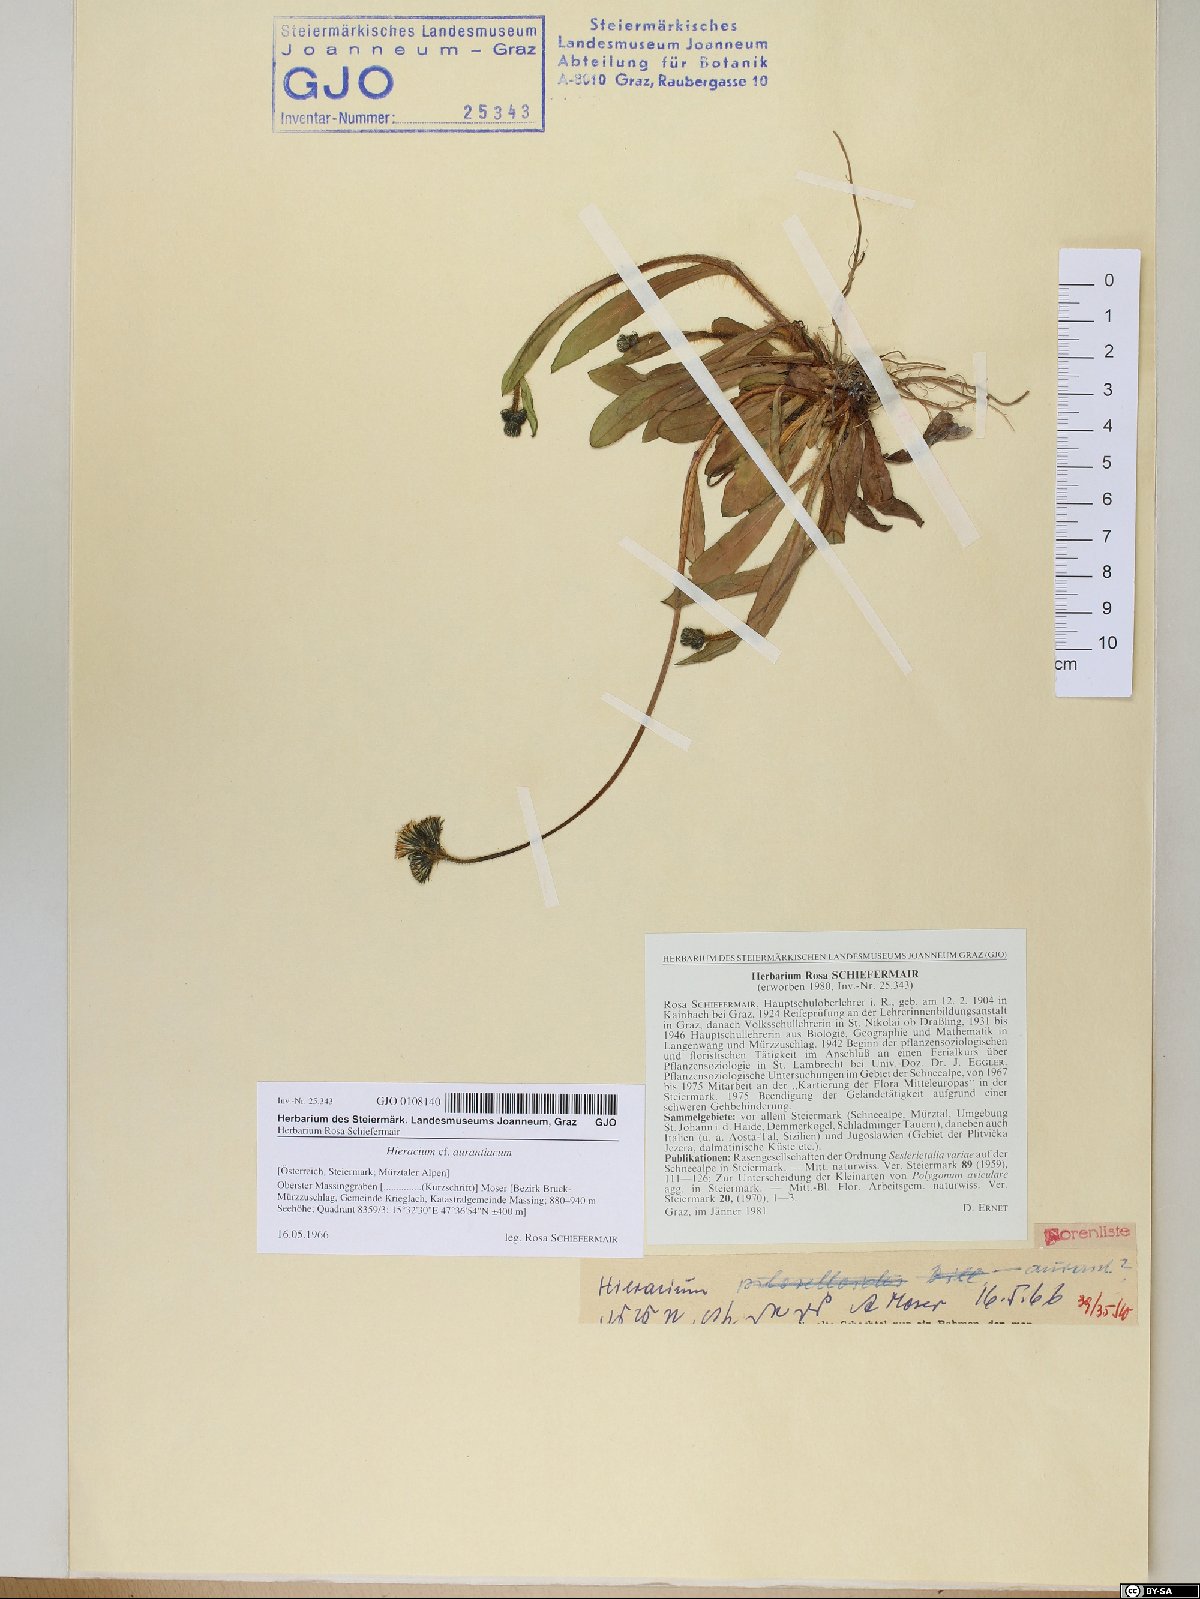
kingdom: Plantae
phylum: Tracheophyta
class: Magnoliopsida
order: Asterales
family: Asteraceae
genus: Pilosella
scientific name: Pilosella aurantiaca
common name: Fox-and-cubs
